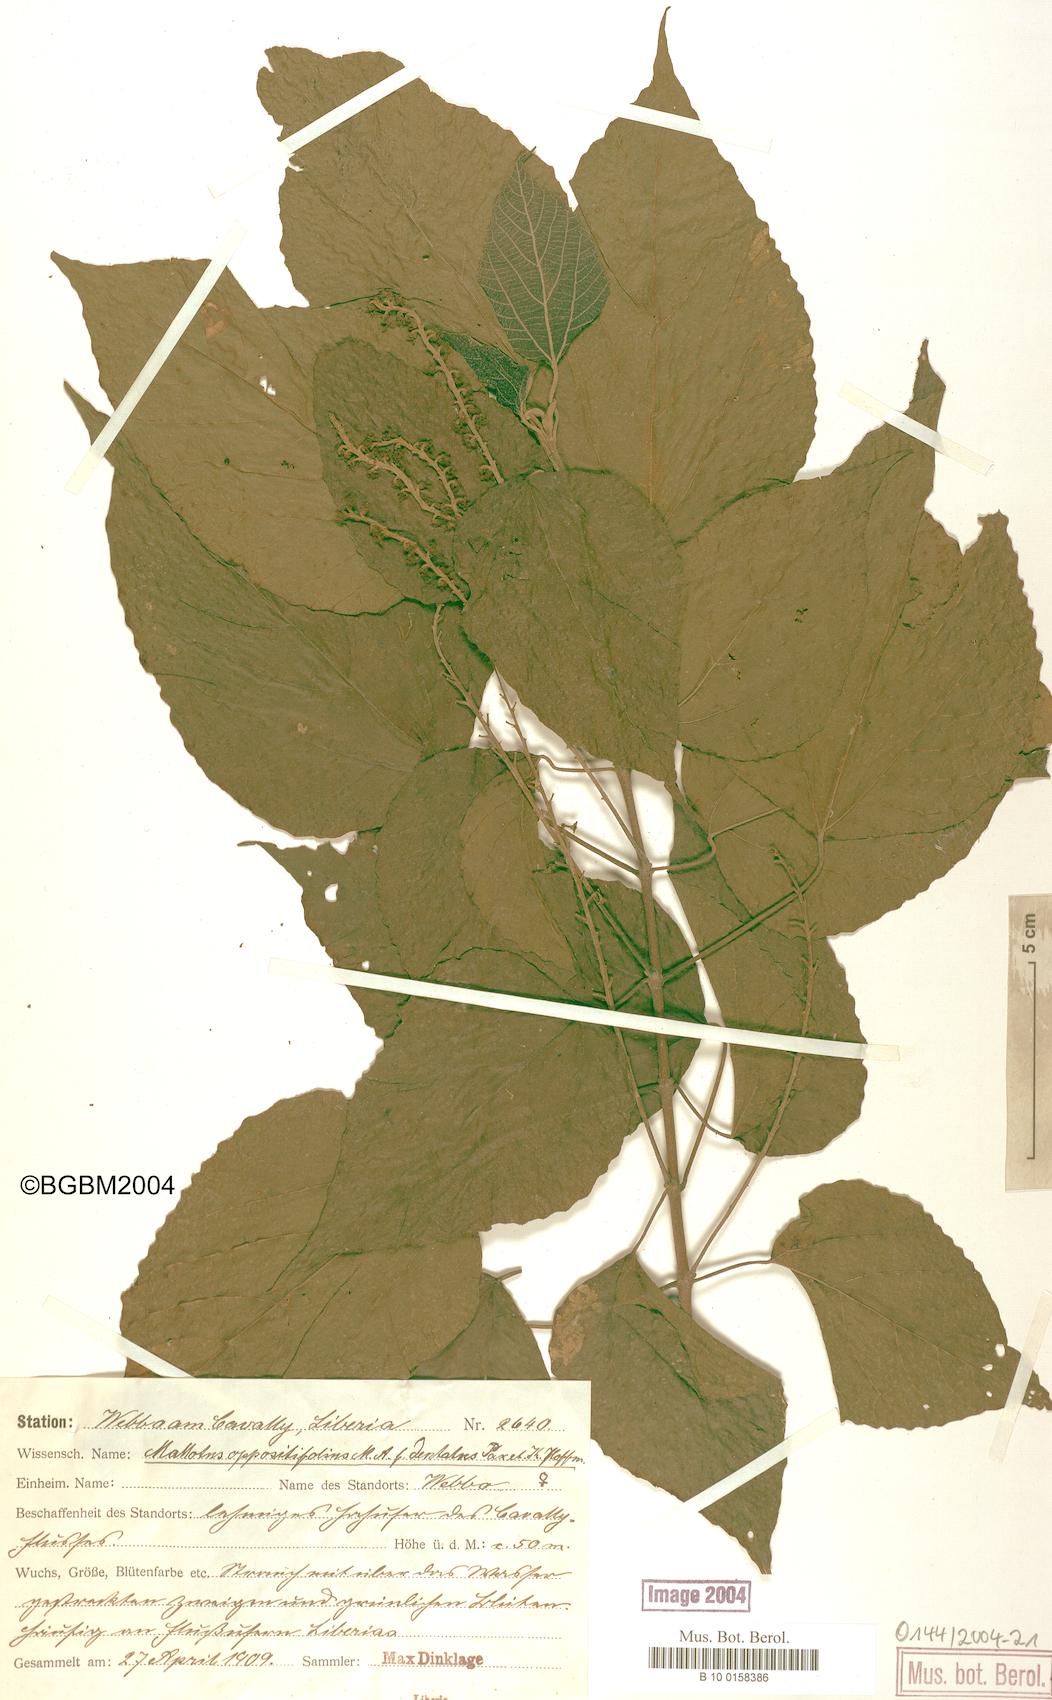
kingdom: Plantae
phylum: Tracheophyta
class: Magnoliopsida
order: Malpighiales
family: Euphorbiaceae
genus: Mallotus
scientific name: Mallotus oppositifolius
